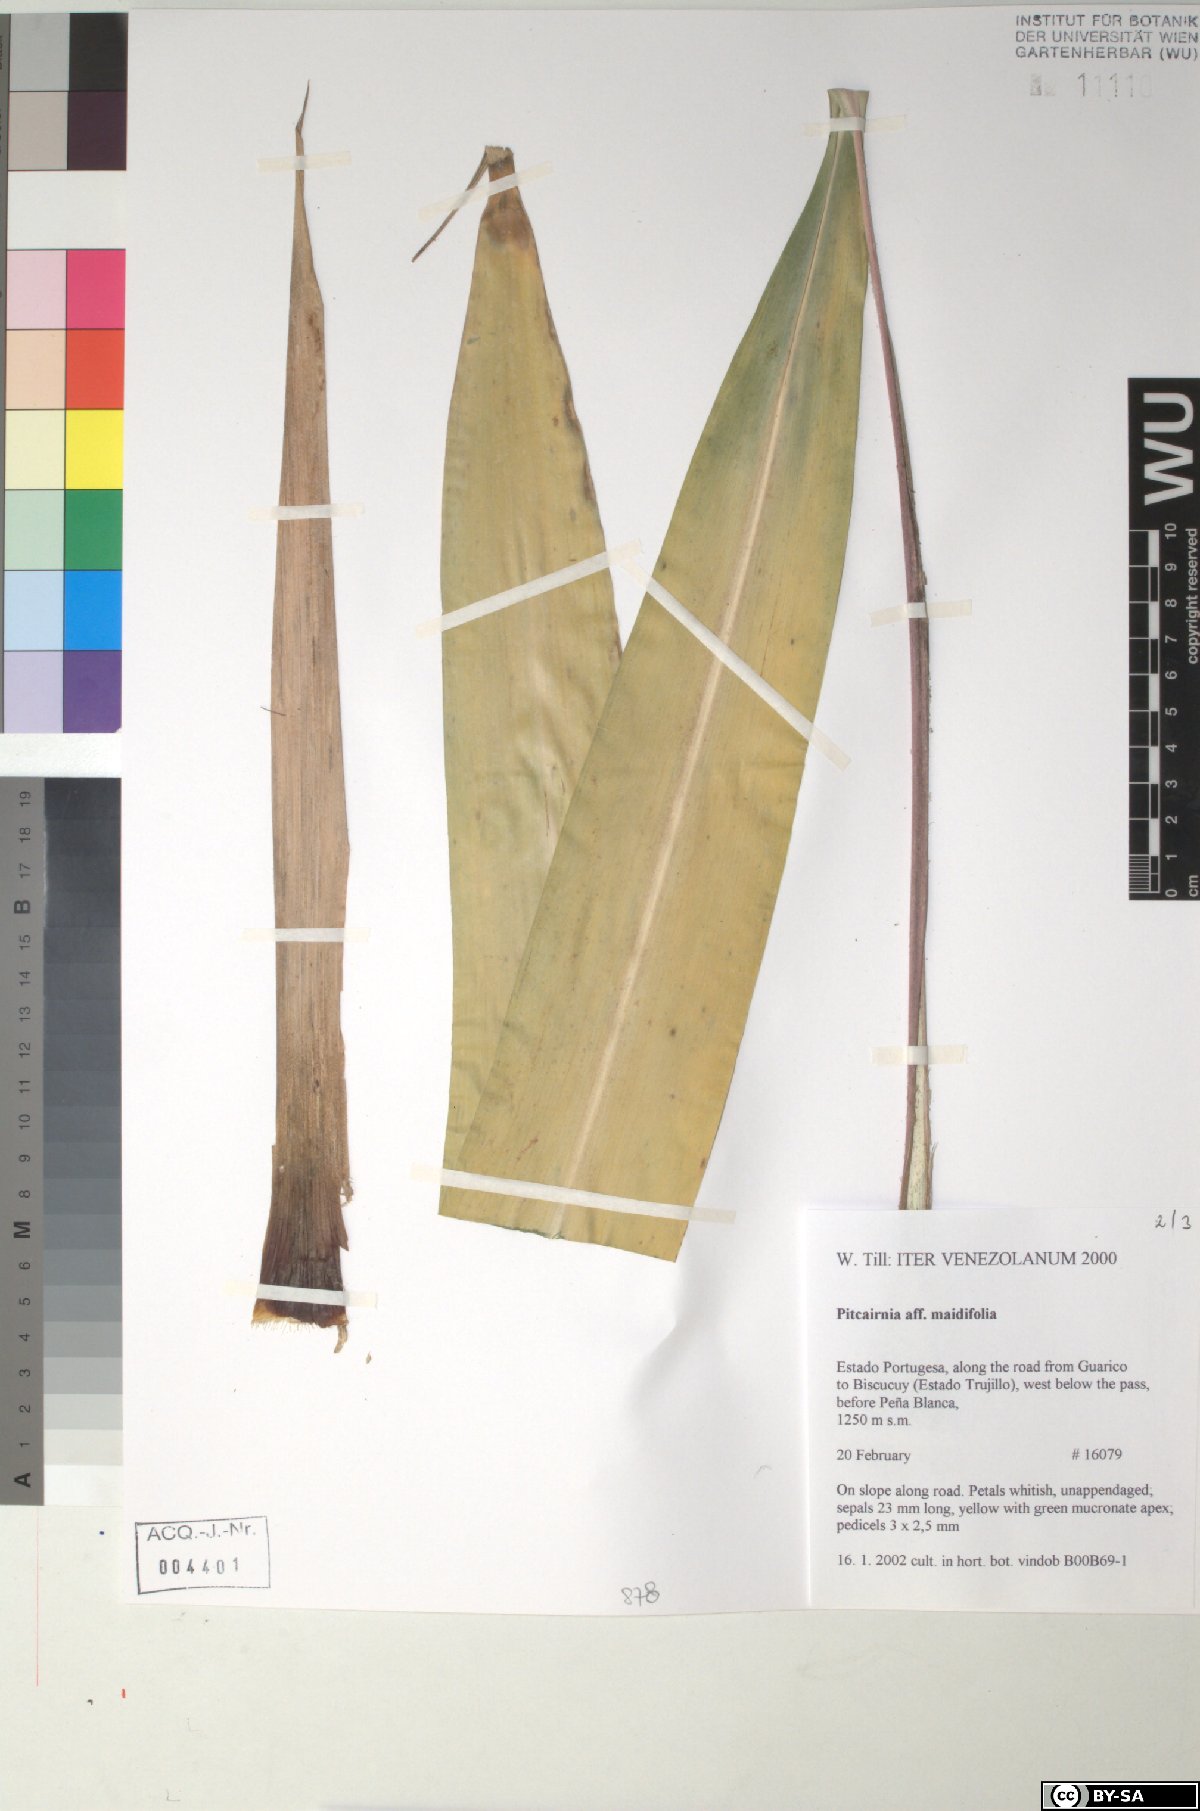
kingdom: Plantae
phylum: Tracheophyta
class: Liliopsida
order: Poales
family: Bromeliaceae
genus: Pitcairnia
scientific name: Pitcairnia albolutea
